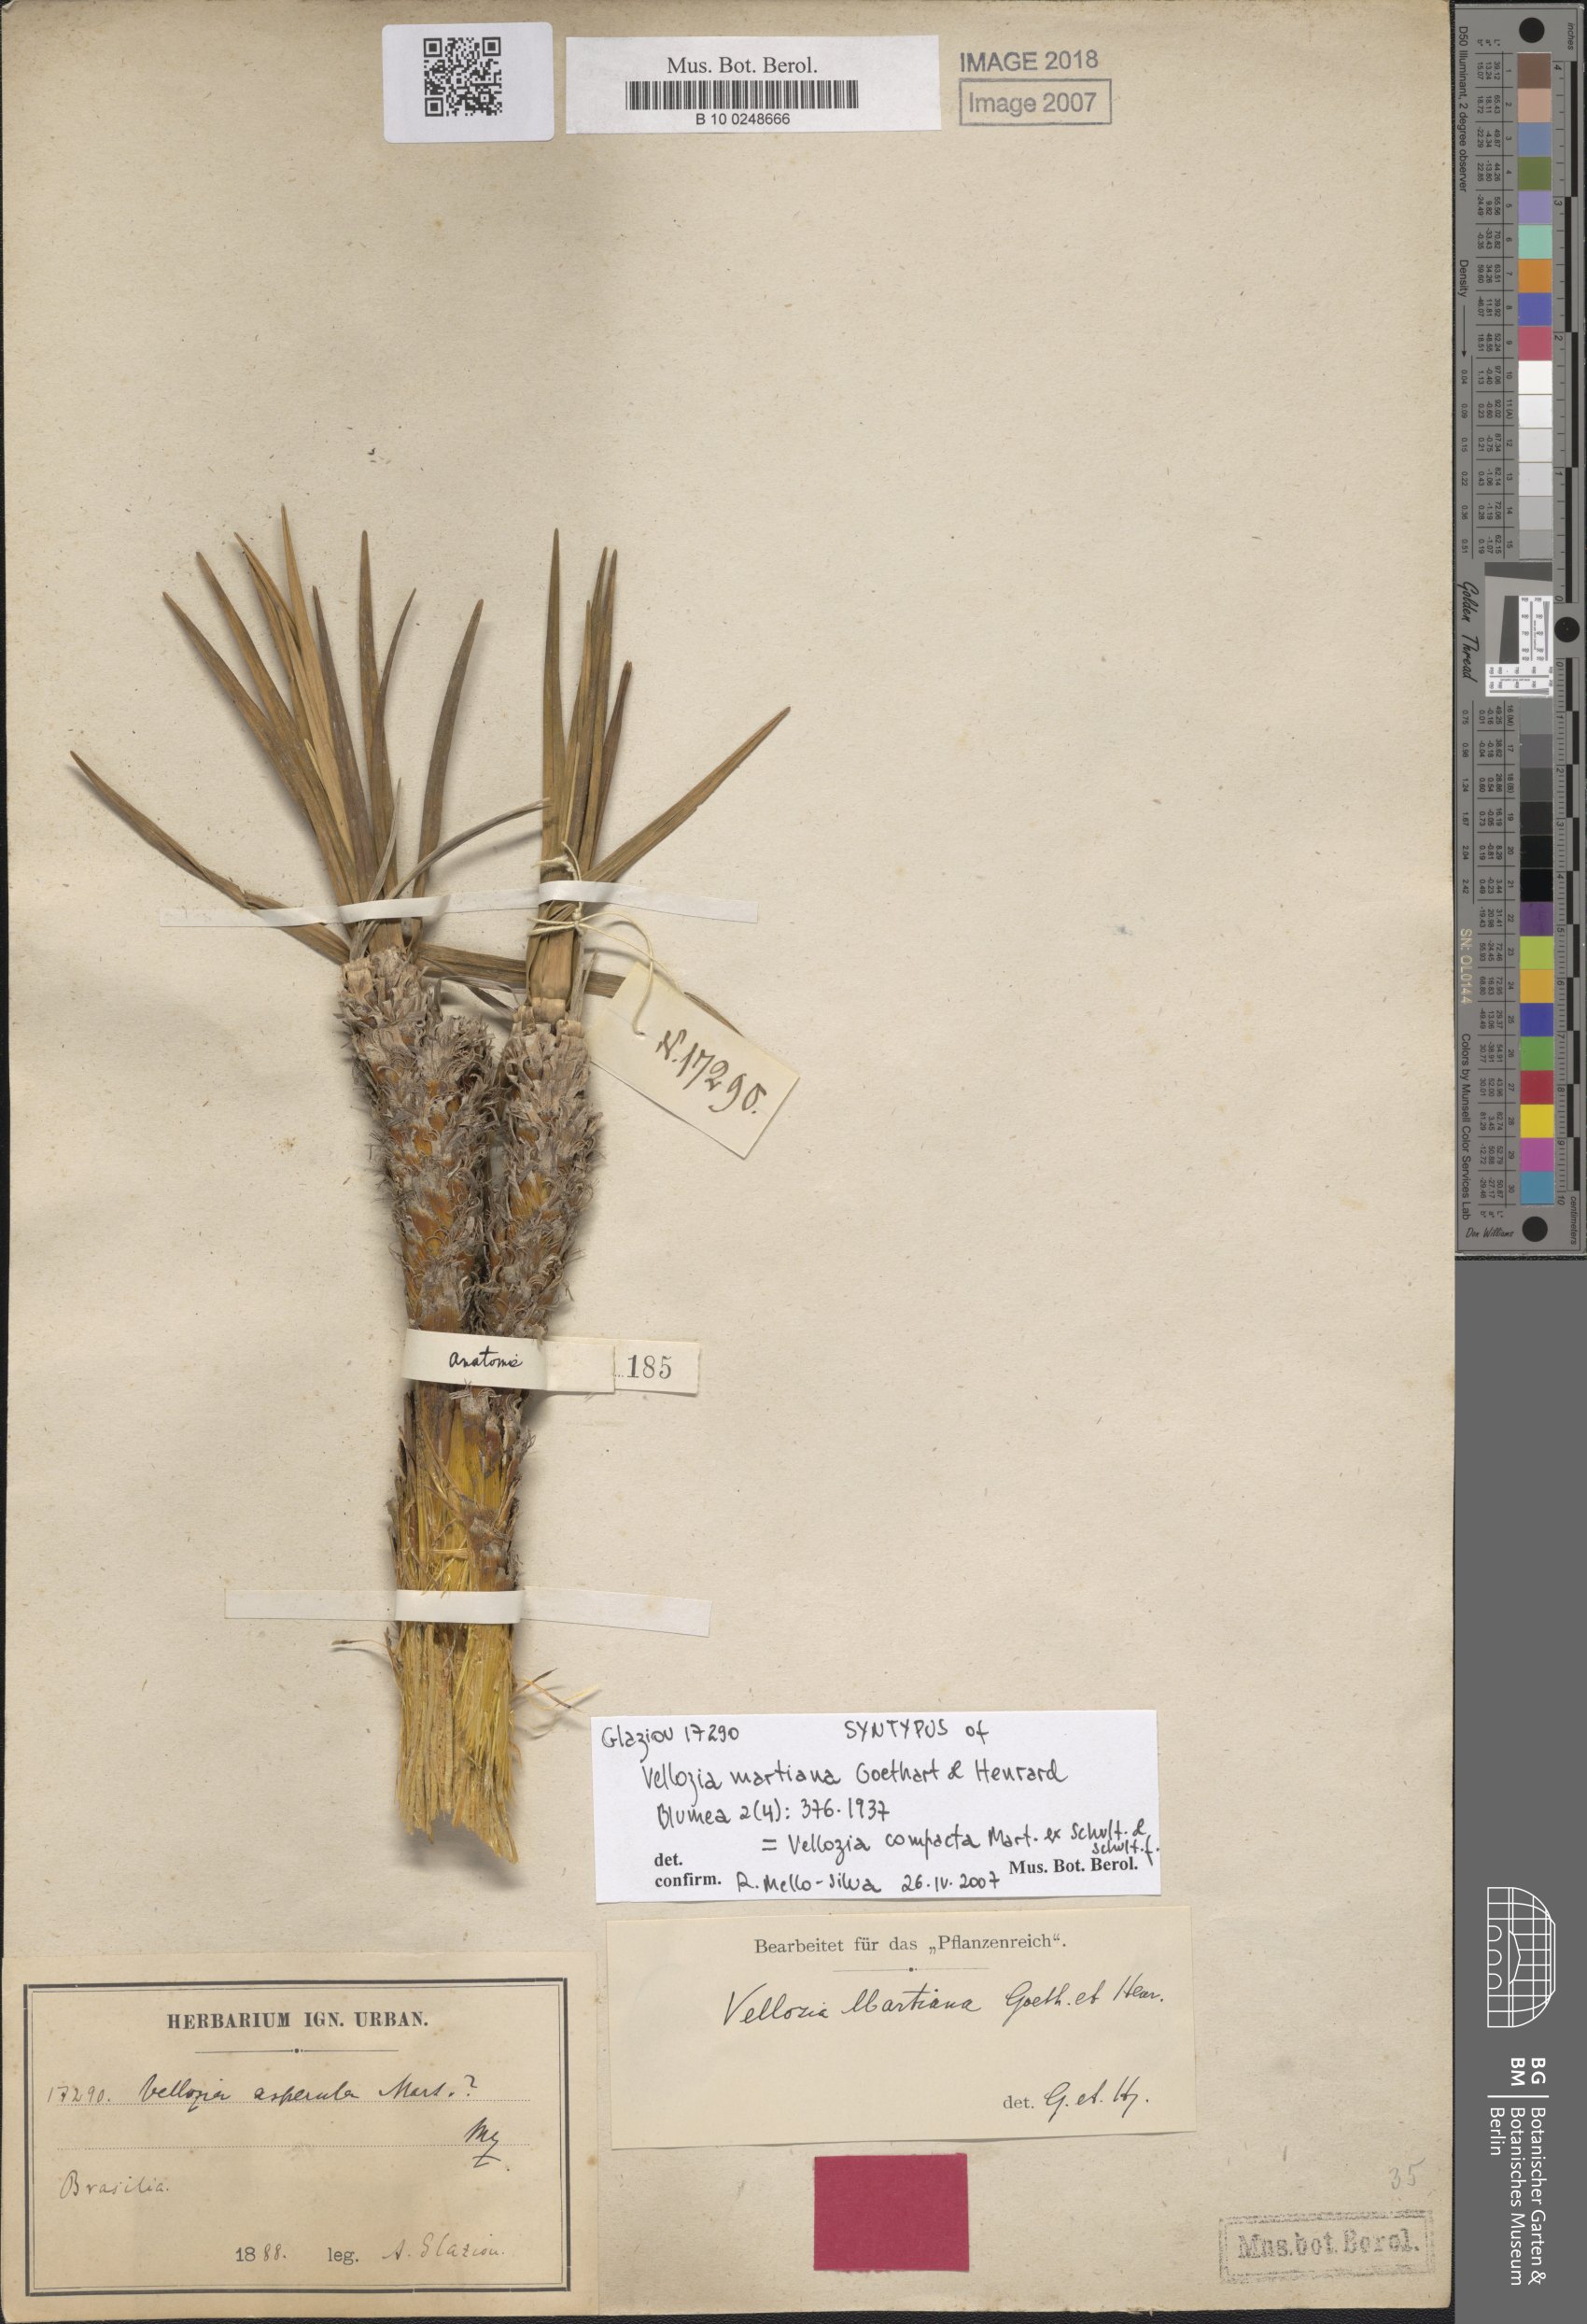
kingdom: Plantae
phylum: Tracheophyta
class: Liliopsida
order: Pandanales
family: Velloziaceae
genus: Vellozia
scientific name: Vellozia compacta
